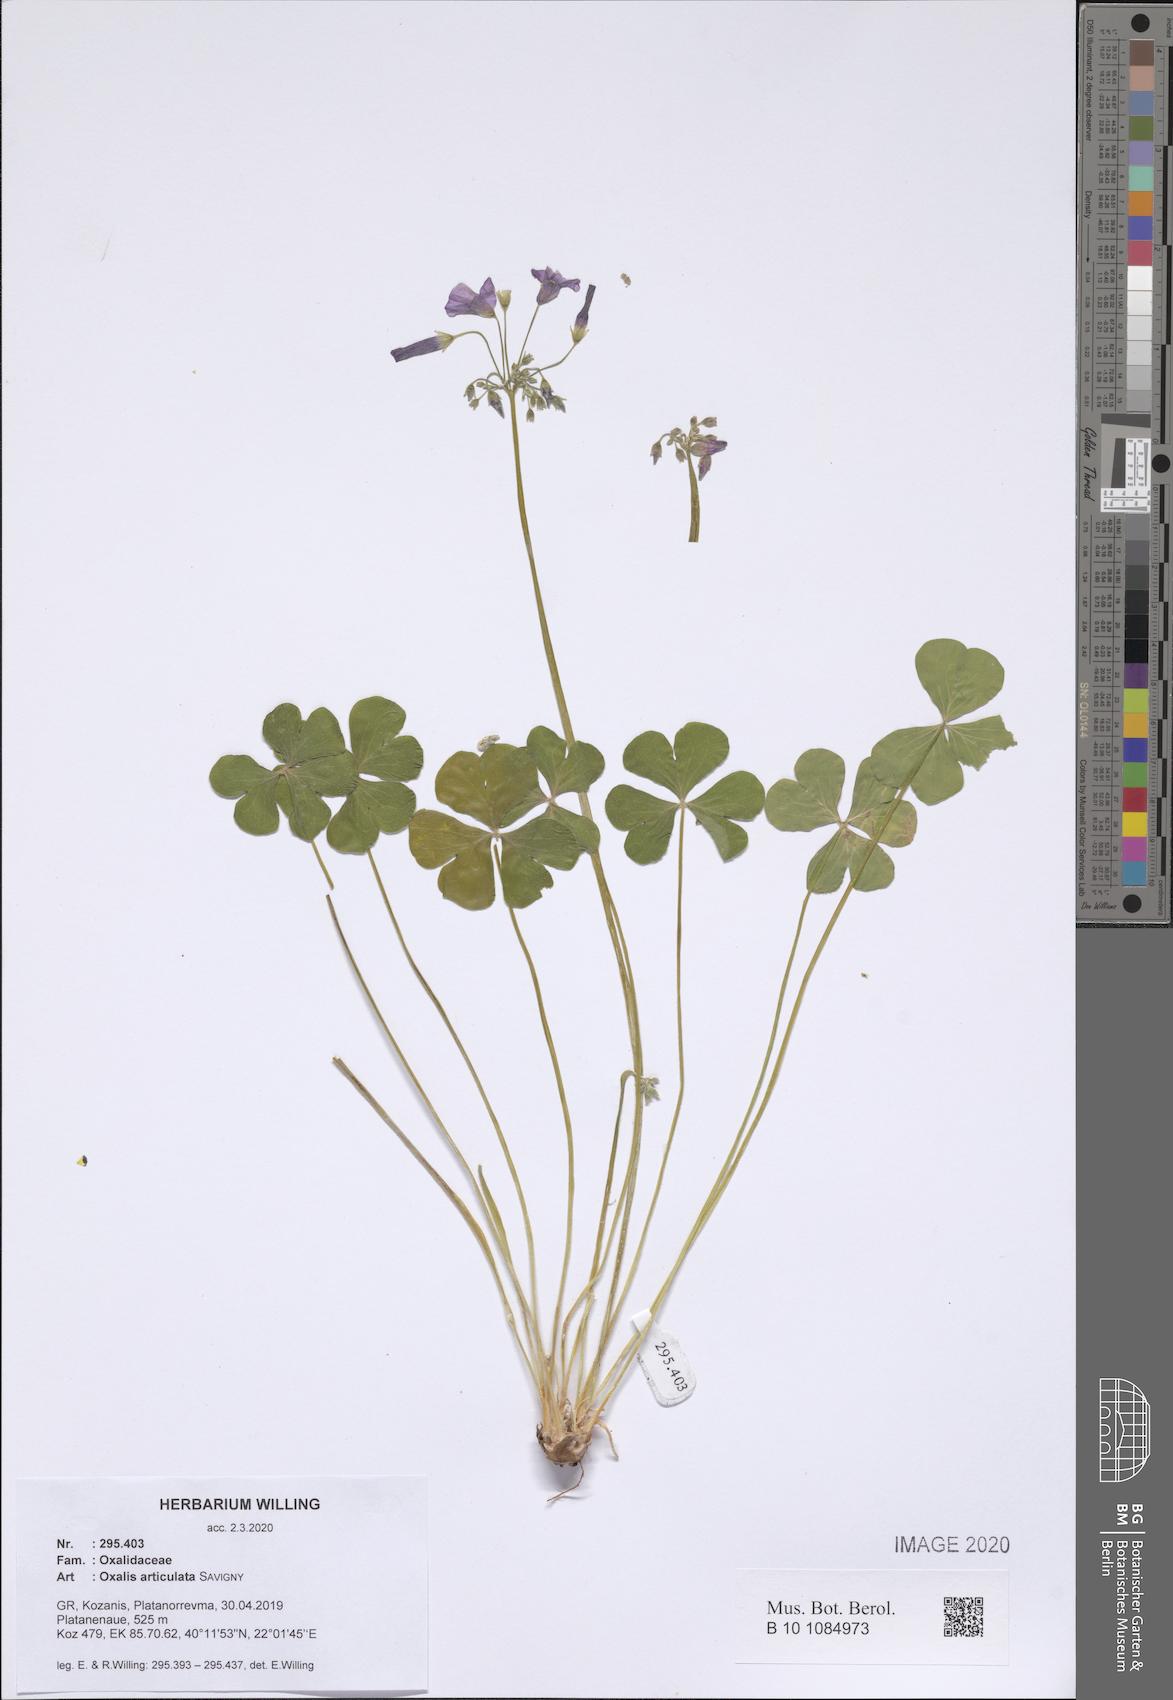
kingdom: Plantae
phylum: Tracheophyta
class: Magnoliopsida
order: Oxalidales
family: Oxalidaceae
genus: Oxalis
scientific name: Oxalis articulata
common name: Pink-sorrel
